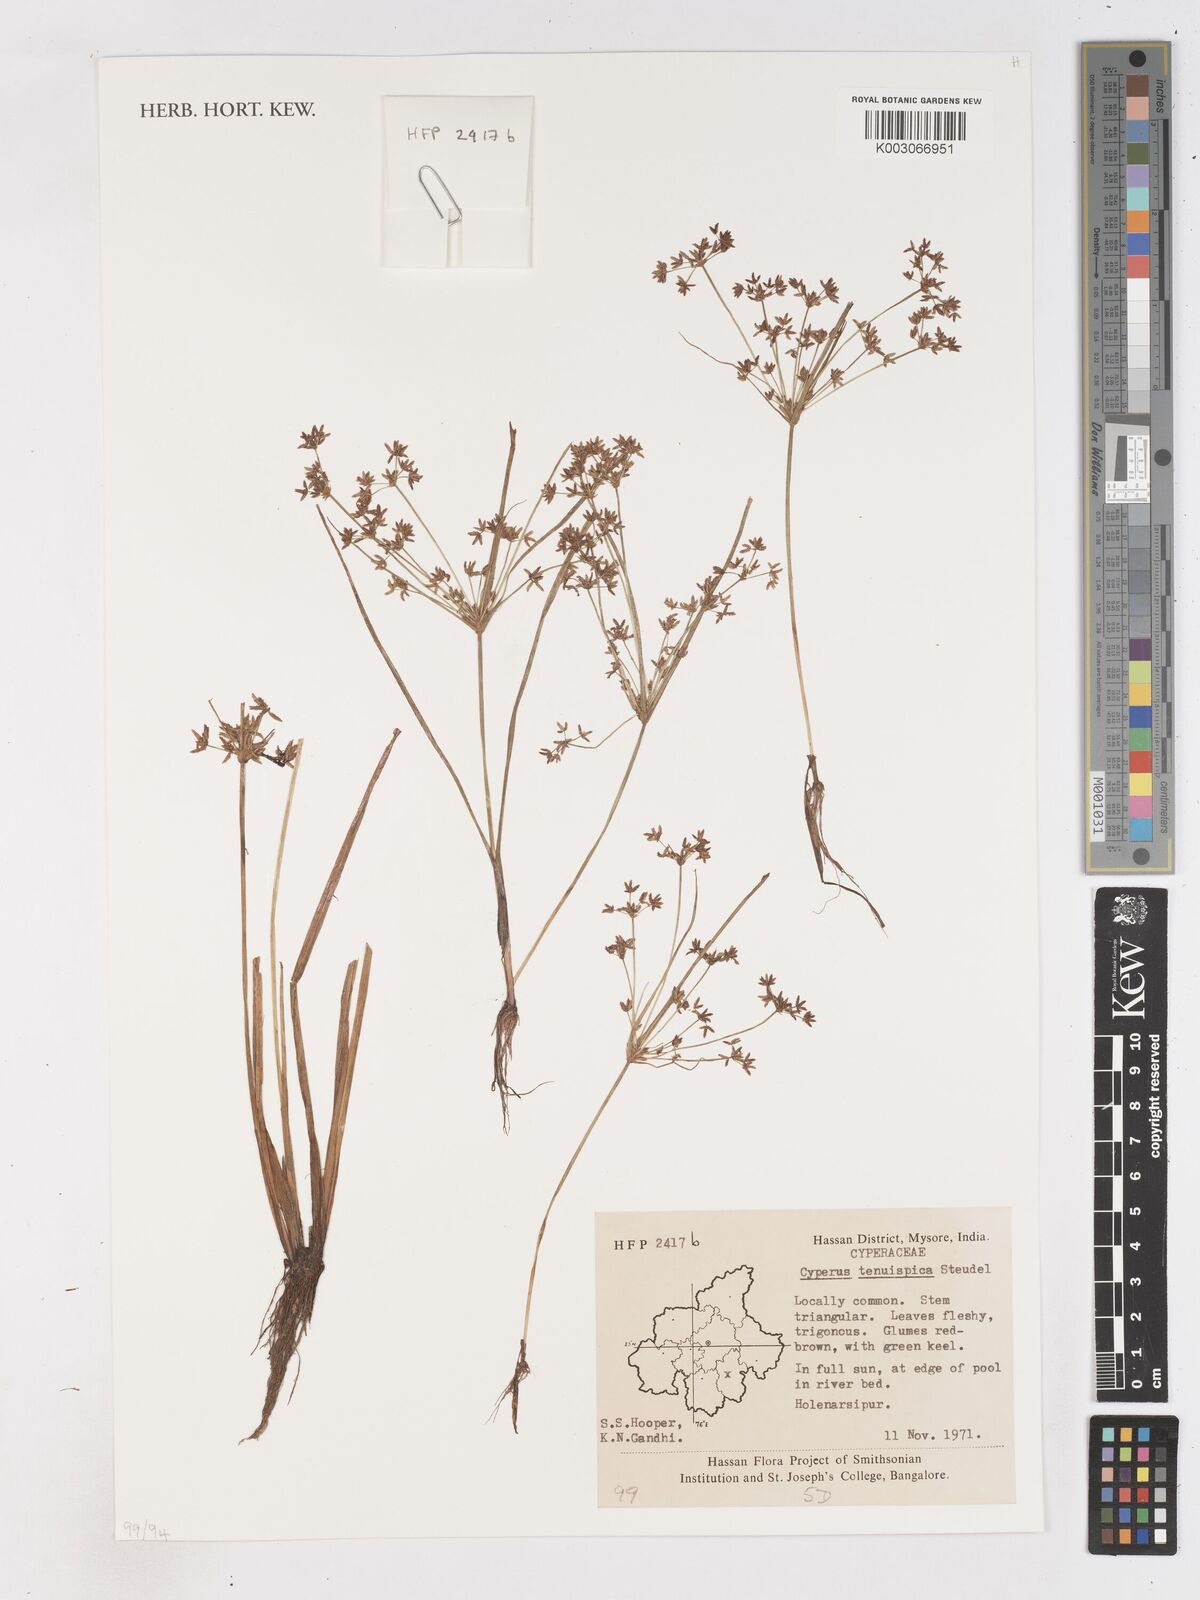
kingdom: Plantae
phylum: Tracheophyta
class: Liliopsida
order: Poales
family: Cyperaceae
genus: Cyperus
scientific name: Cyperus tenuispica
